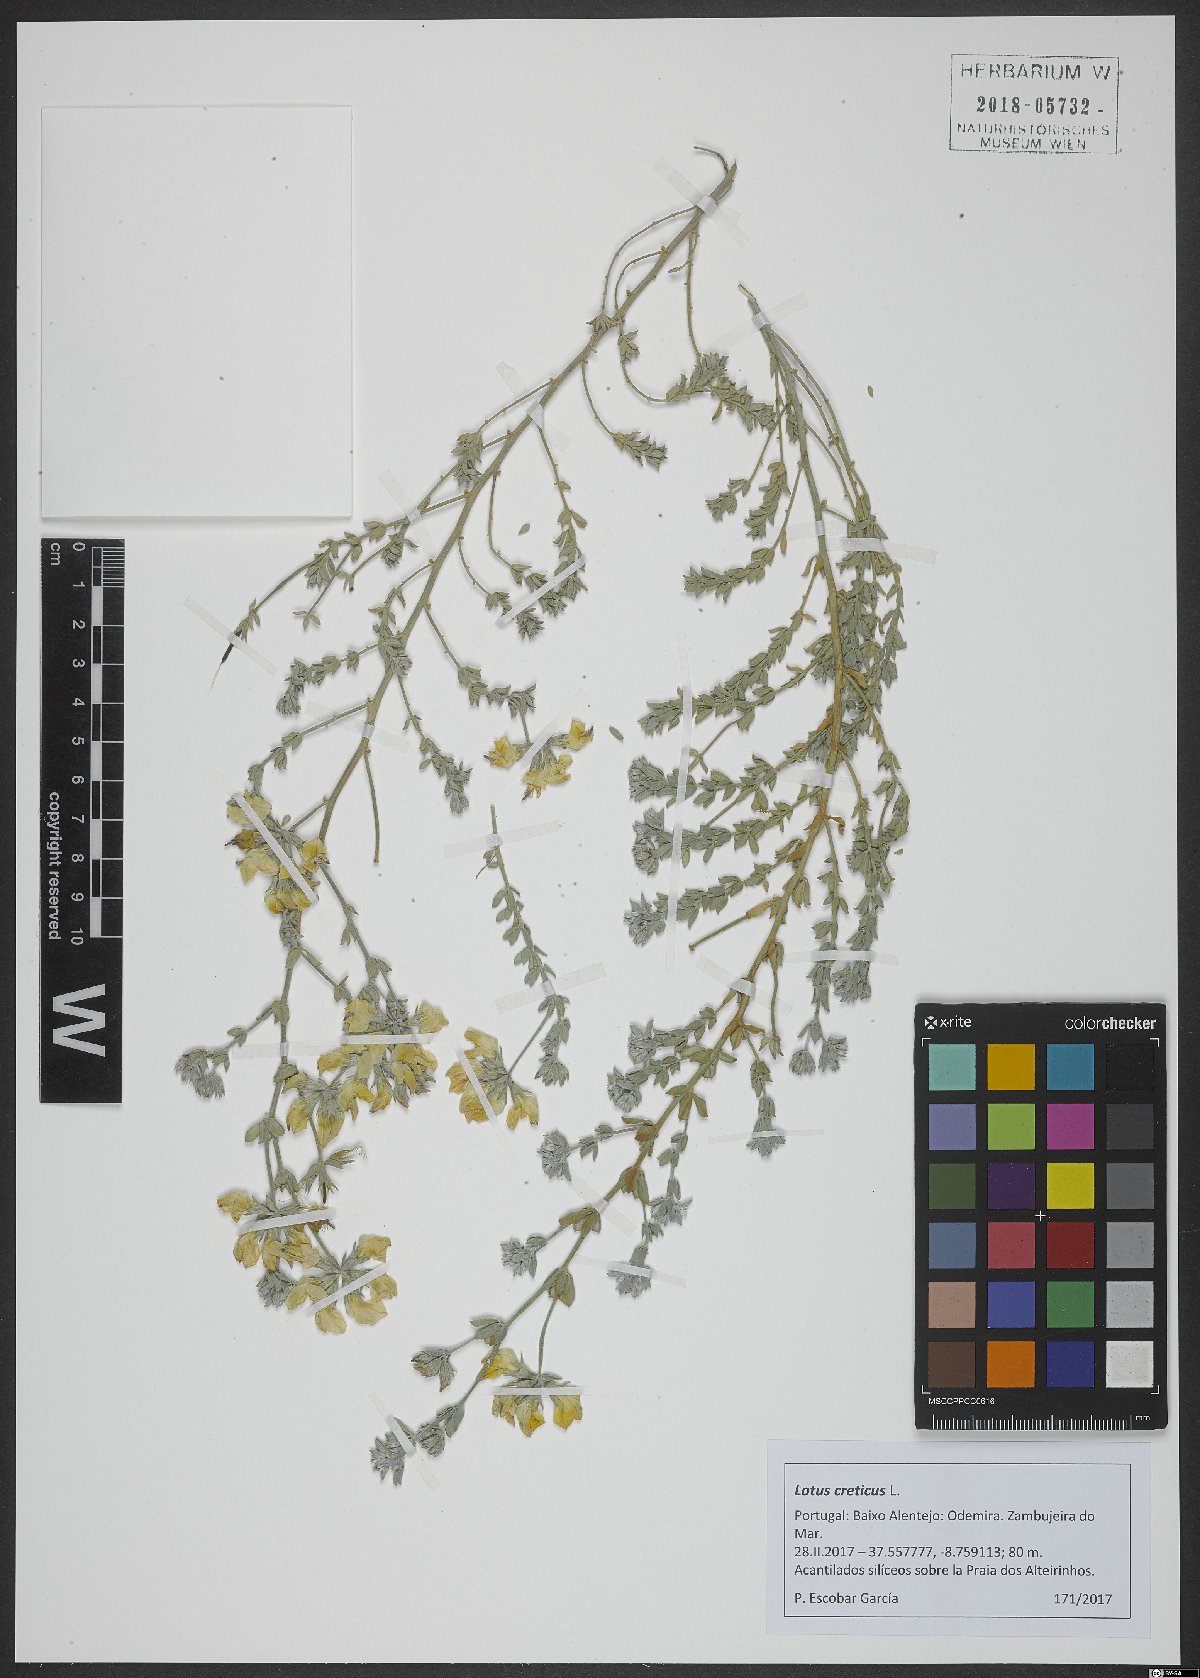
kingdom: Plantae
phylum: Tracheophyta
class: Magnoliopsida
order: Fabales
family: Fabaceae
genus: Lotus
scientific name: Lotus creticus
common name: Cretan bird's-foot trefoil
